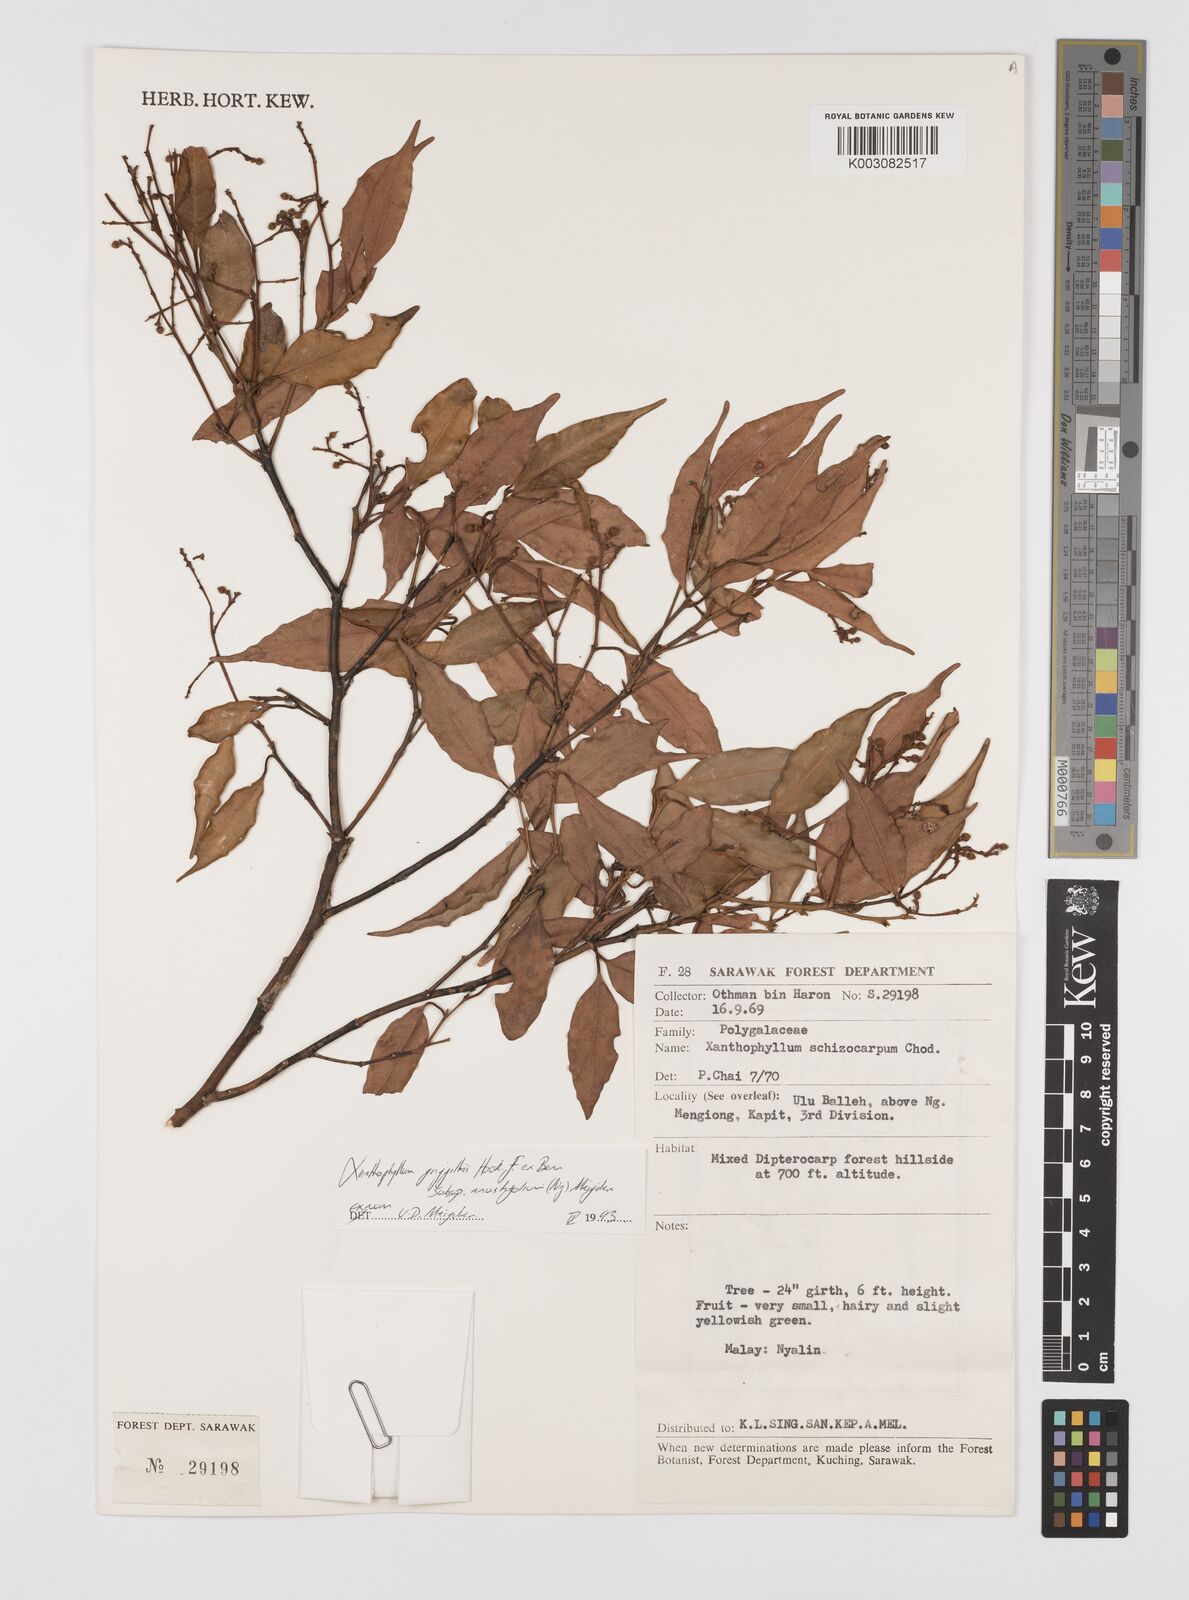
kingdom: Plantae
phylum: Tracheophyta
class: Magnoliopsida
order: Fabales
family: Polygalaceae
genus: Xanthophyllum
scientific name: Xanthophyllum griffithii
